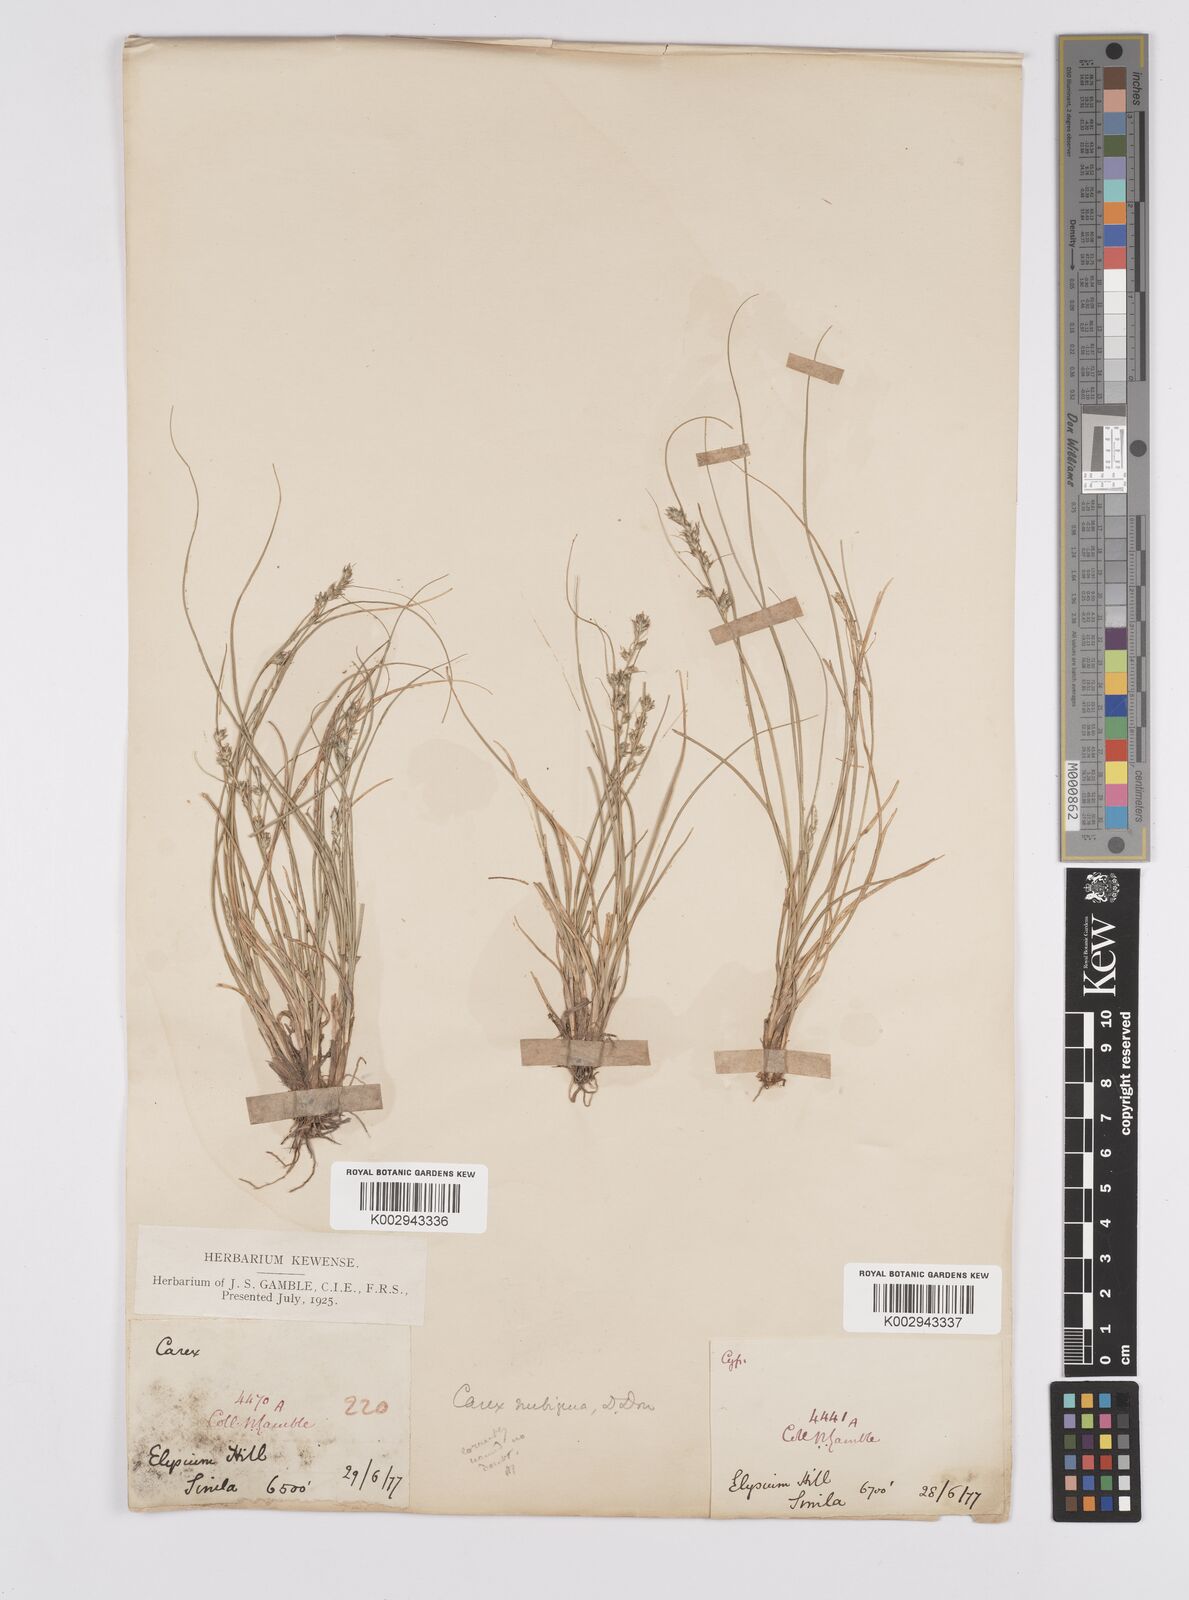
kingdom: Plantae
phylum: Tracheophyta
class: Liliopsida
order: Poales
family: Cyperaceae
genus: Carex
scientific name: Carex nubigena
